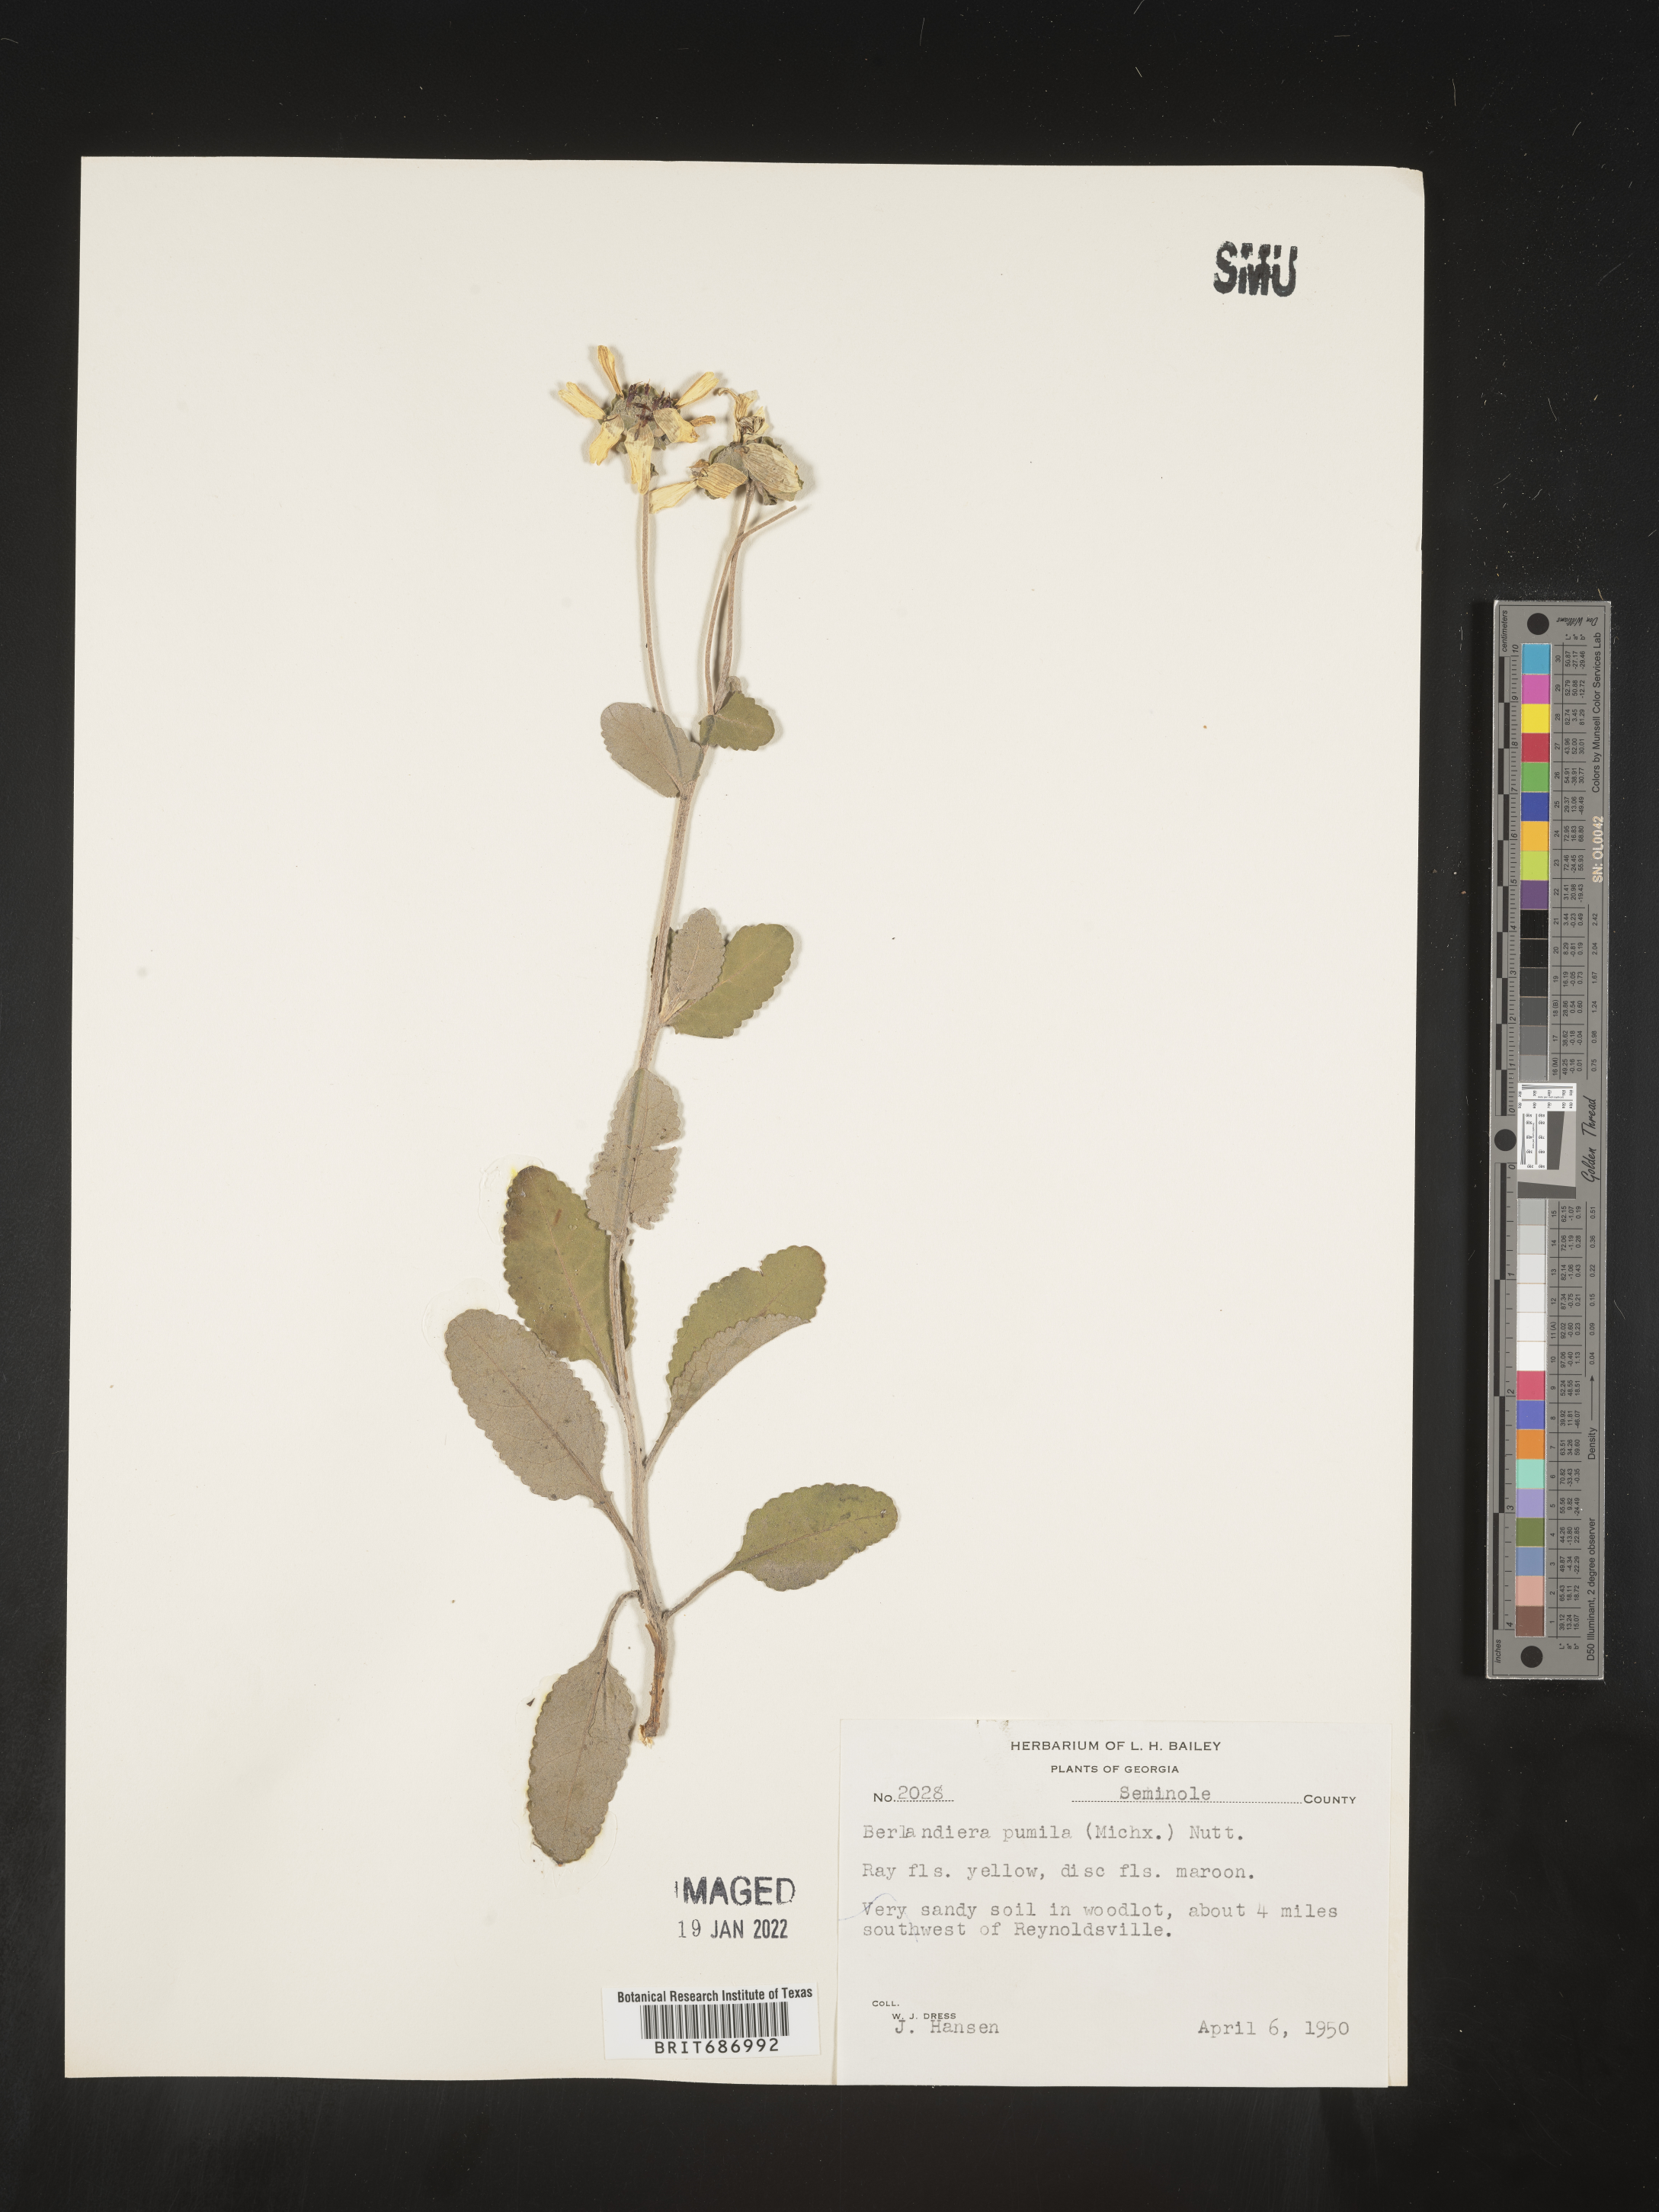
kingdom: Plantae
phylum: Tracheophyta
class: Magnoliopsida
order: Asterales
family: Asteraceae
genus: Berlandiera
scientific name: Berlandiera pumila
